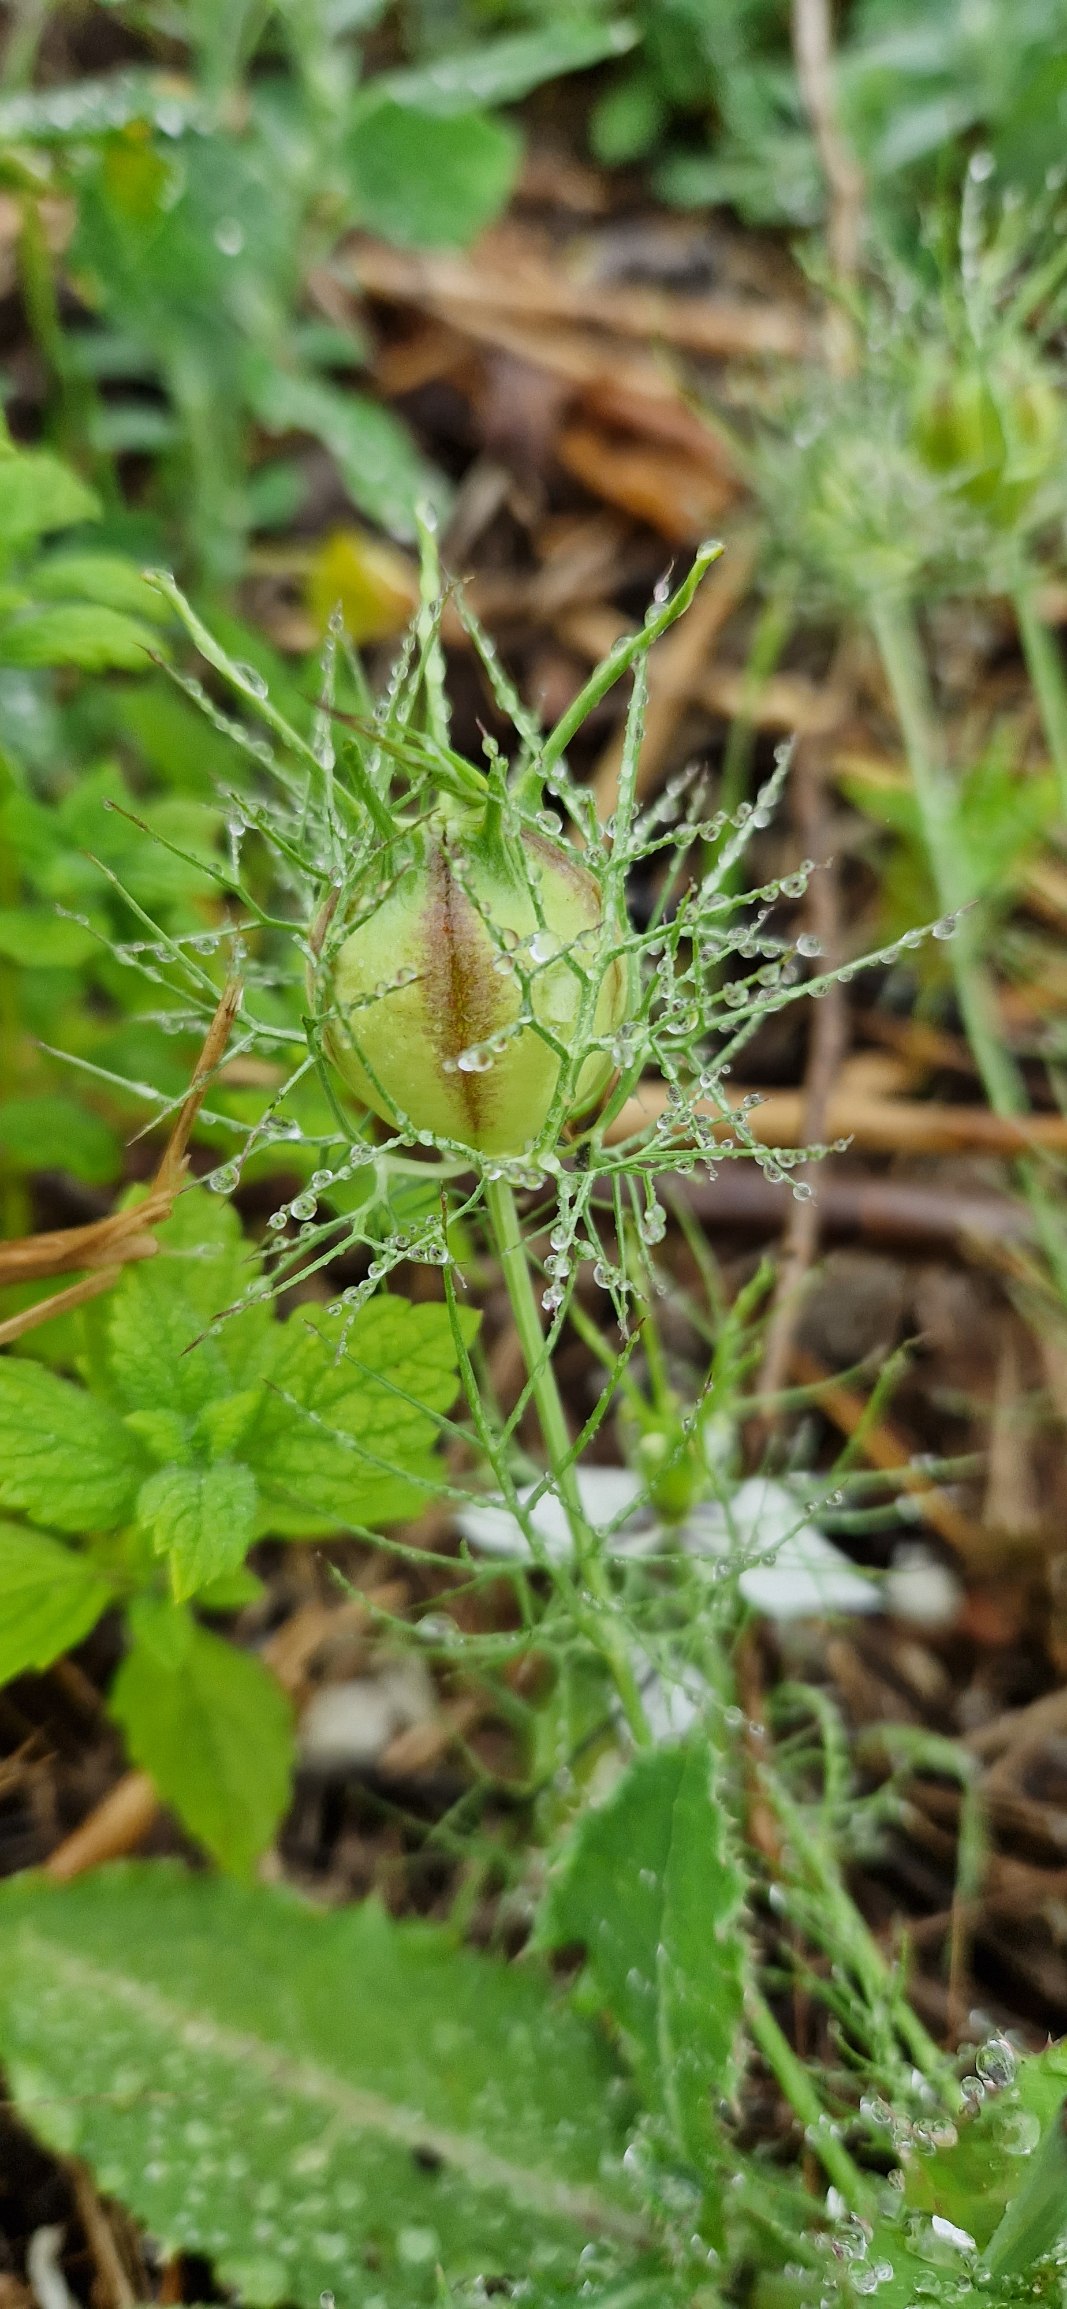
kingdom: Plantae
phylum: Tracheophyta
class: Magnoliopsida
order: Ranunculales
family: Ranunculaceae
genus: Nigella
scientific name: Nigella damascena
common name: Jomfru i det grønne
